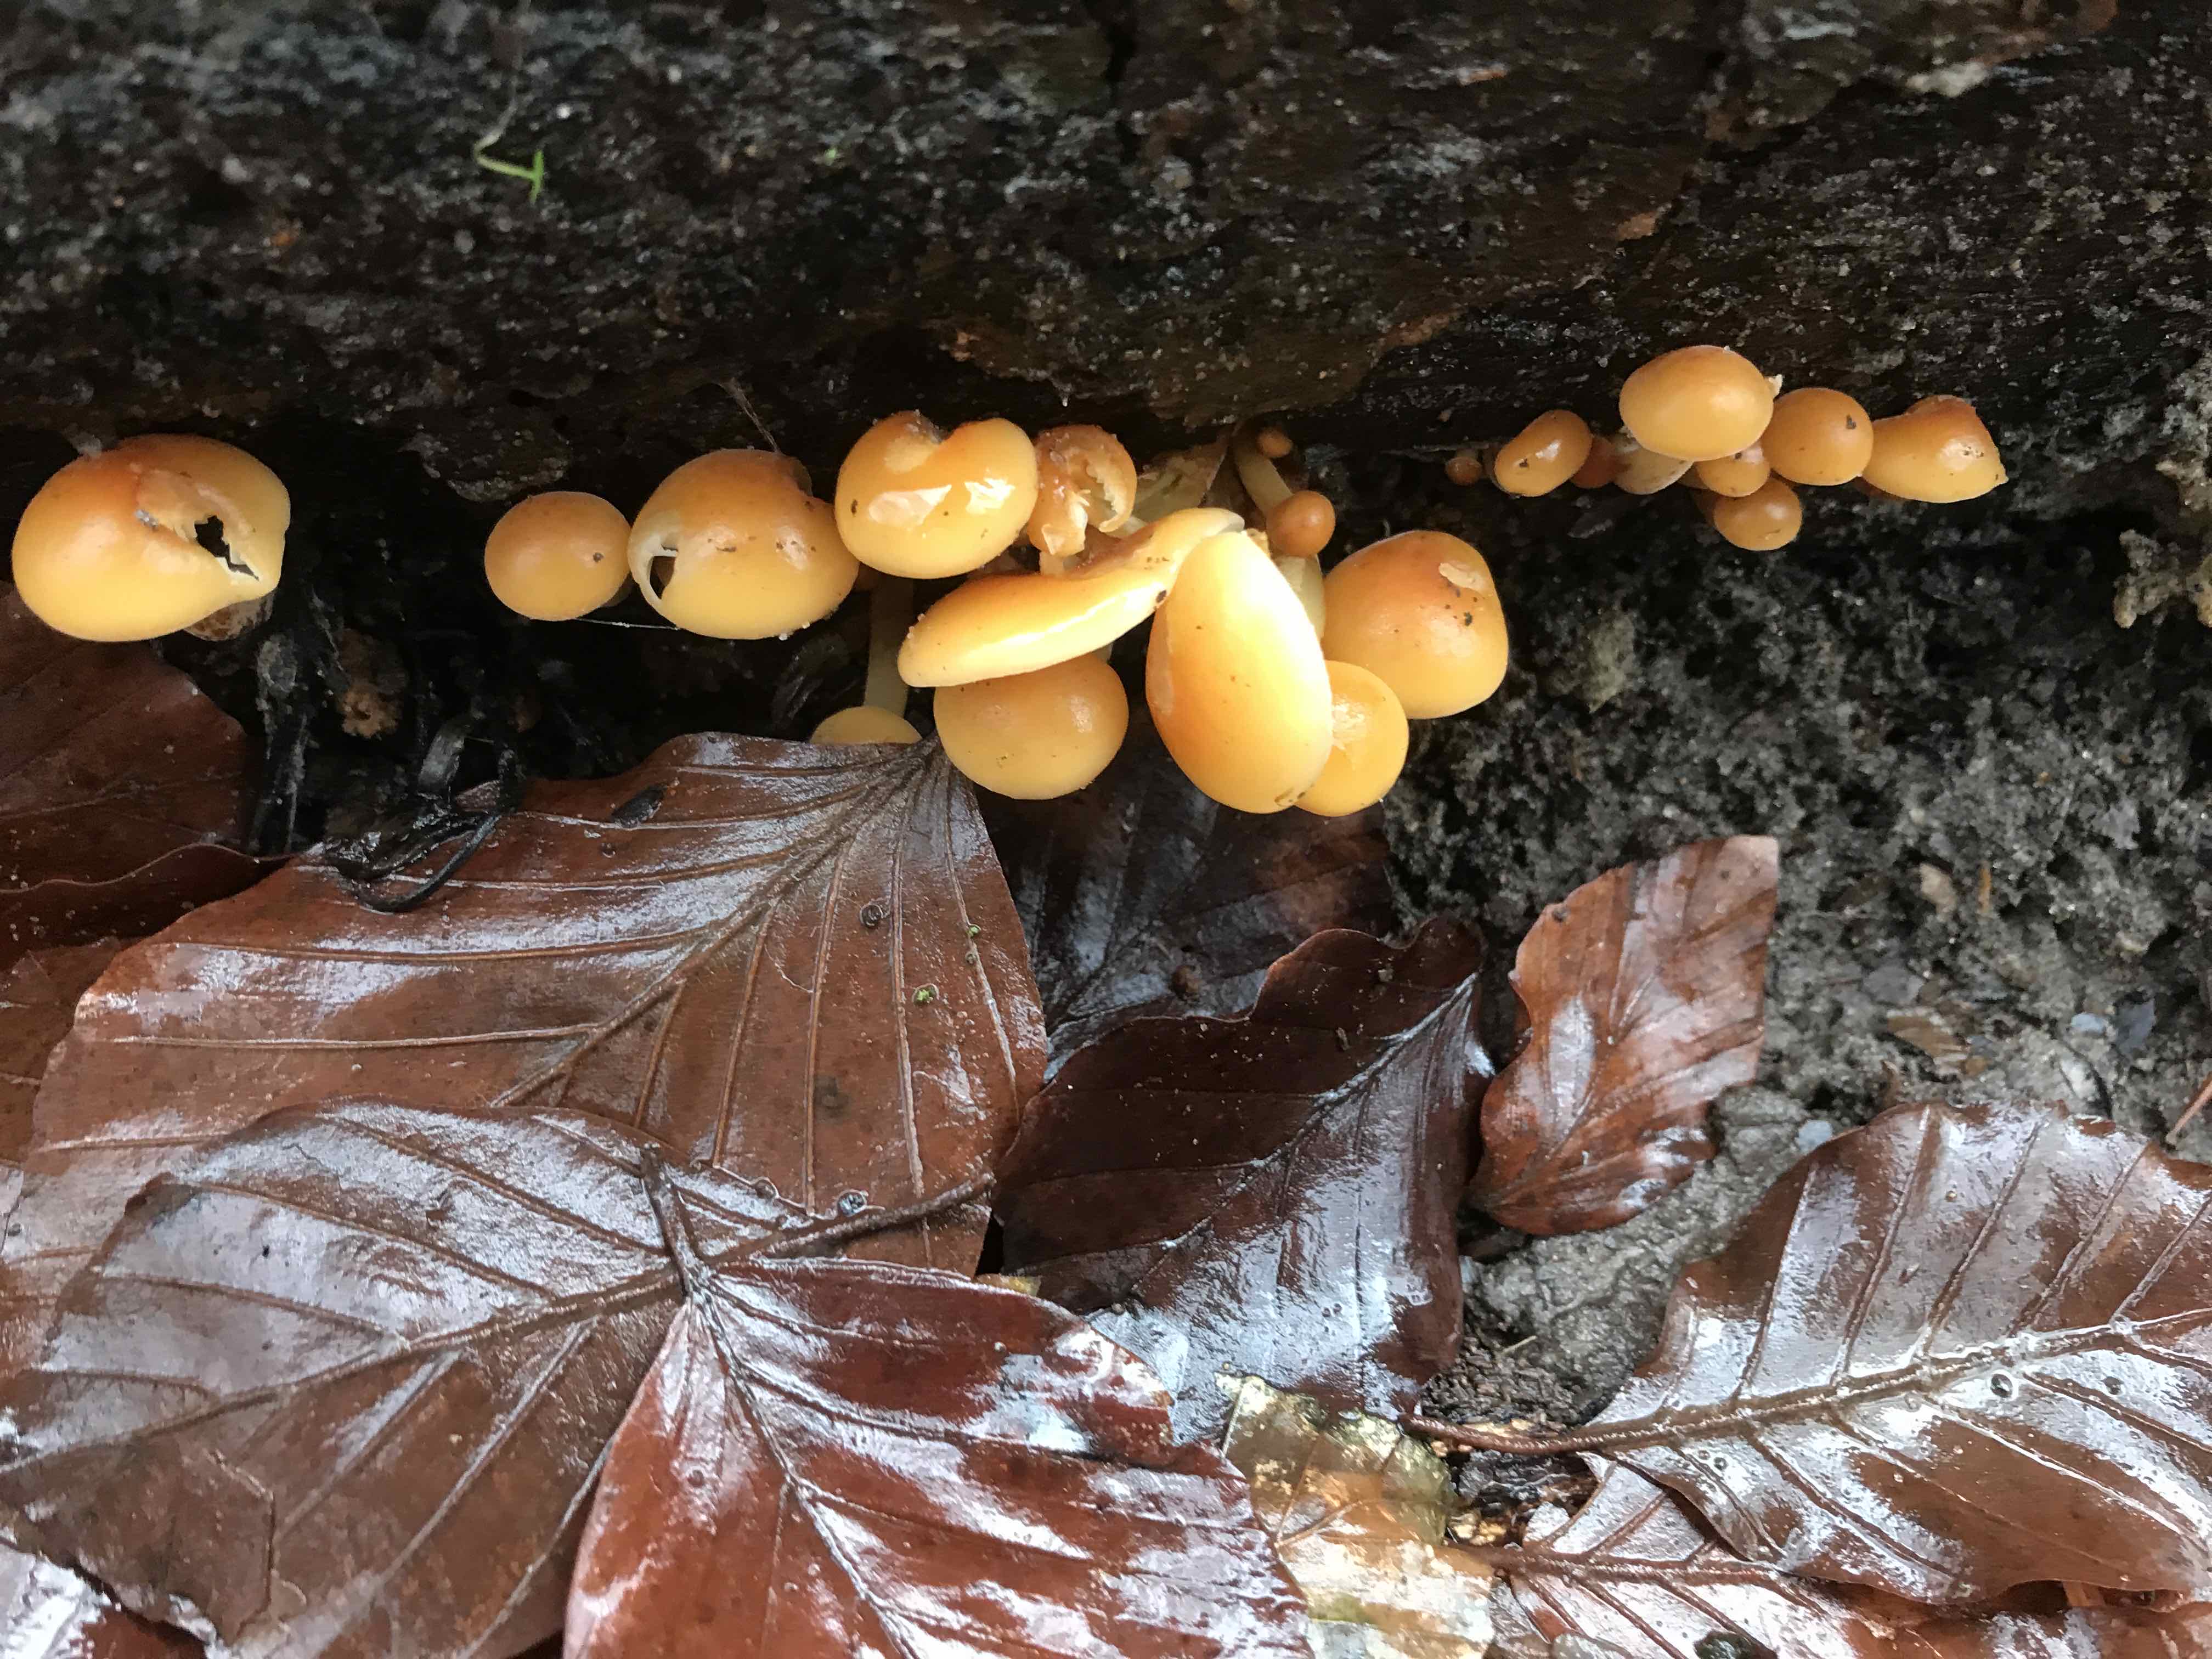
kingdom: Fungi
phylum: Basidiomycota
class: Agaricomycetes
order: Agaricales
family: Physalacriaceae
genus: Flammulina
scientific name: Flammulina velutipes
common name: gul fløjlsfod
